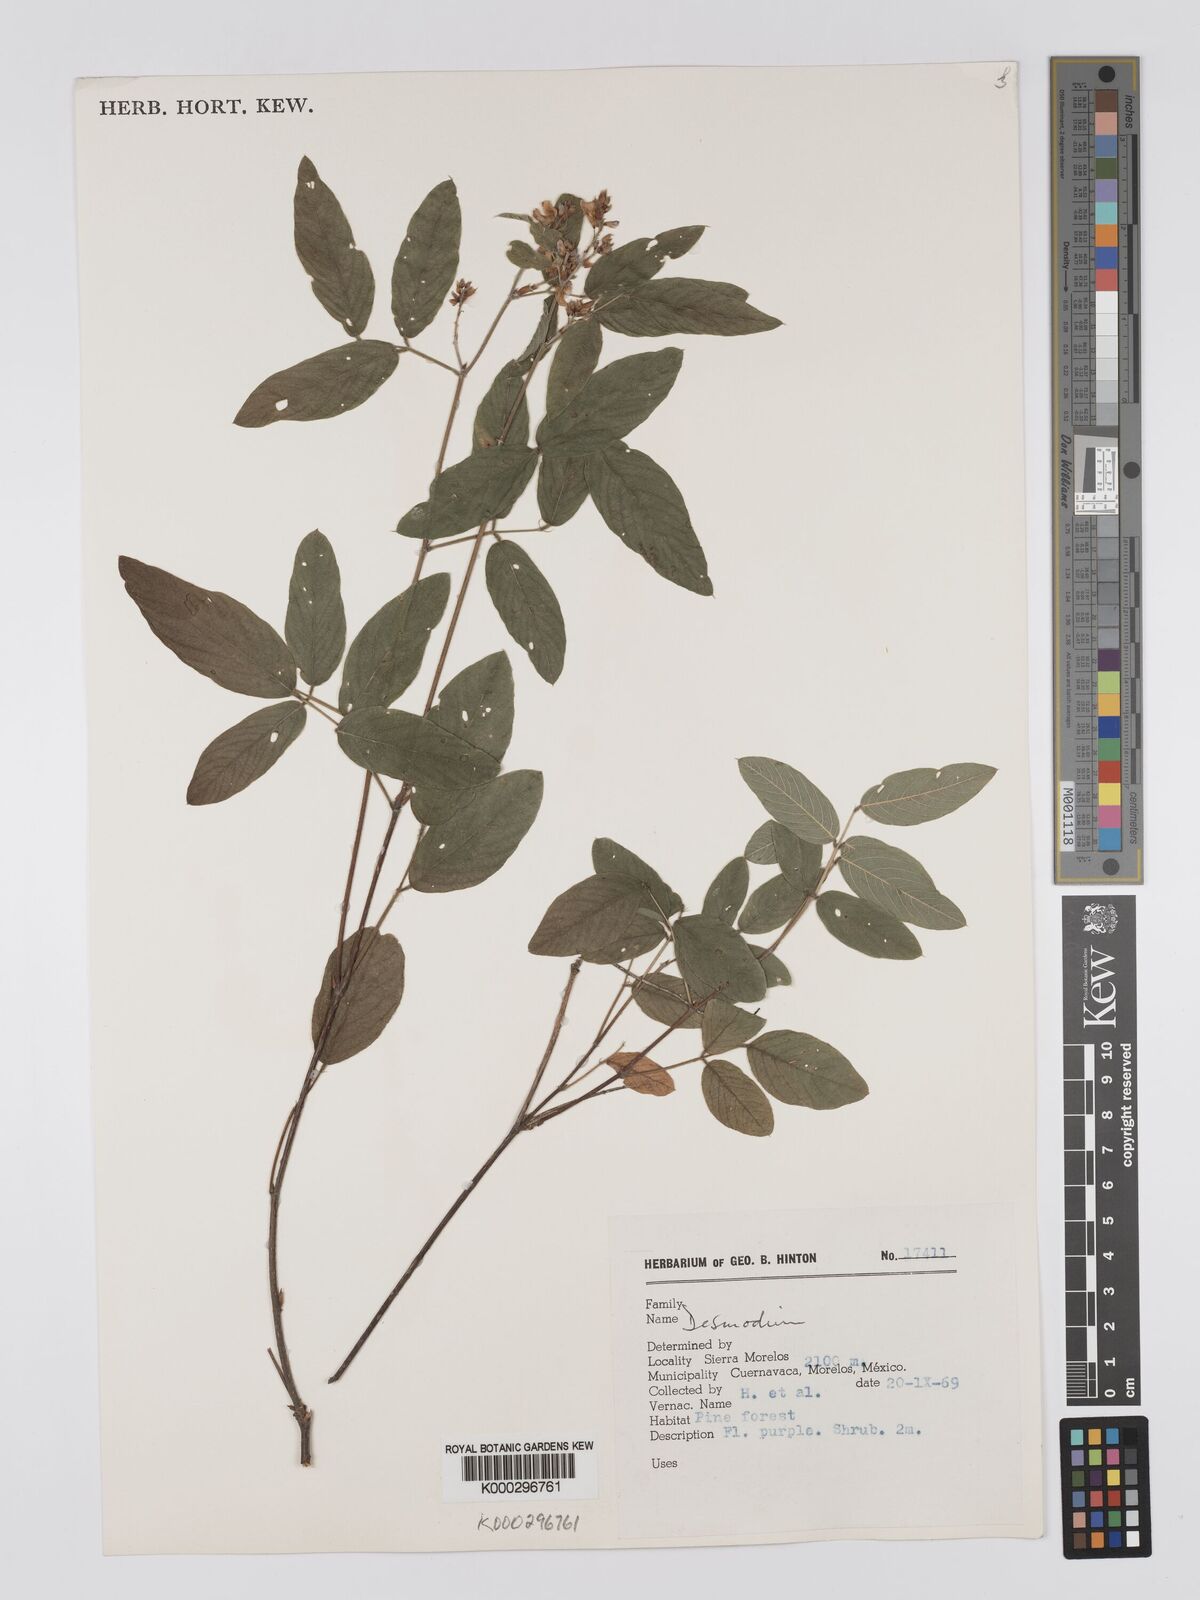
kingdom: Plantae
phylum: Tracheophyta
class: Magnoliopsida
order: Fabales
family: Fabaceae
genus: Desmodium
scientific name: Desmodium
